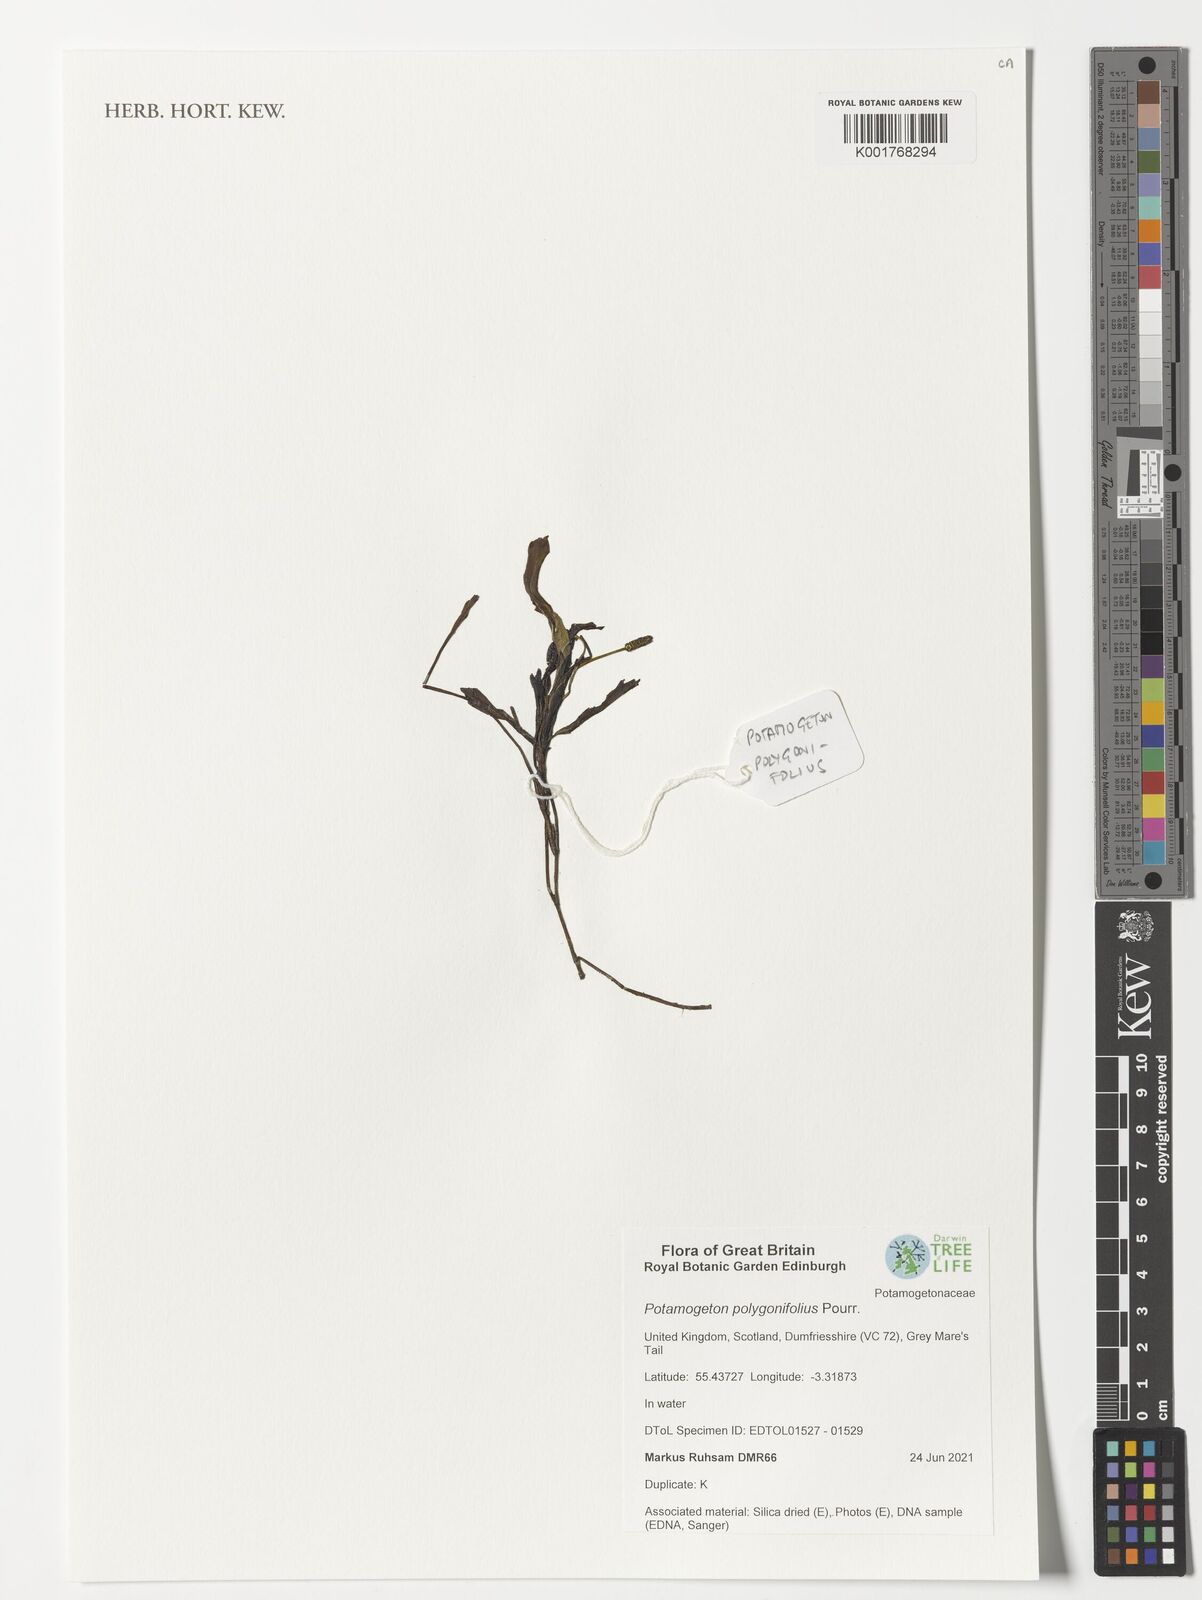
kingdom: Plantae
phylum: Tracheophyta
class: Liliopsida
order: Alismatales
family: Potamogetonaceae
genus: Potamogeton
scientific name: Potamogeton polygonifolius
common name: Bog pondweed
